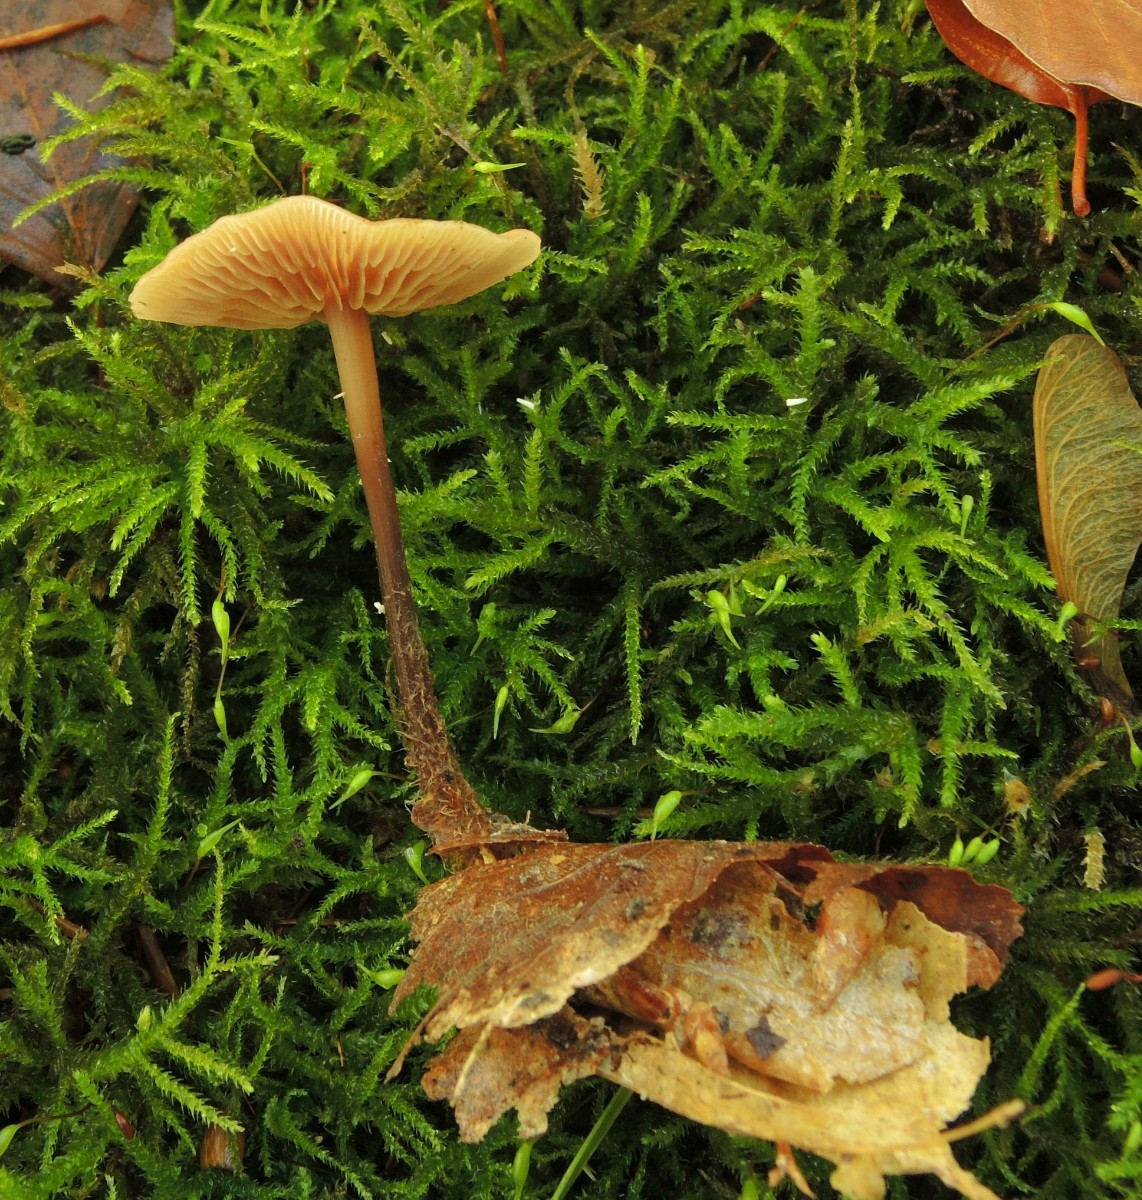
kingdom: Fungi
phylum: Basidiomycota
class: Agaricomycetes
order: Agaricales
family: Omphalotaceae
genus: Gymnopus
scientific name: Gymnopus fuscopurpureus
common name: purpurbrun fladhat
